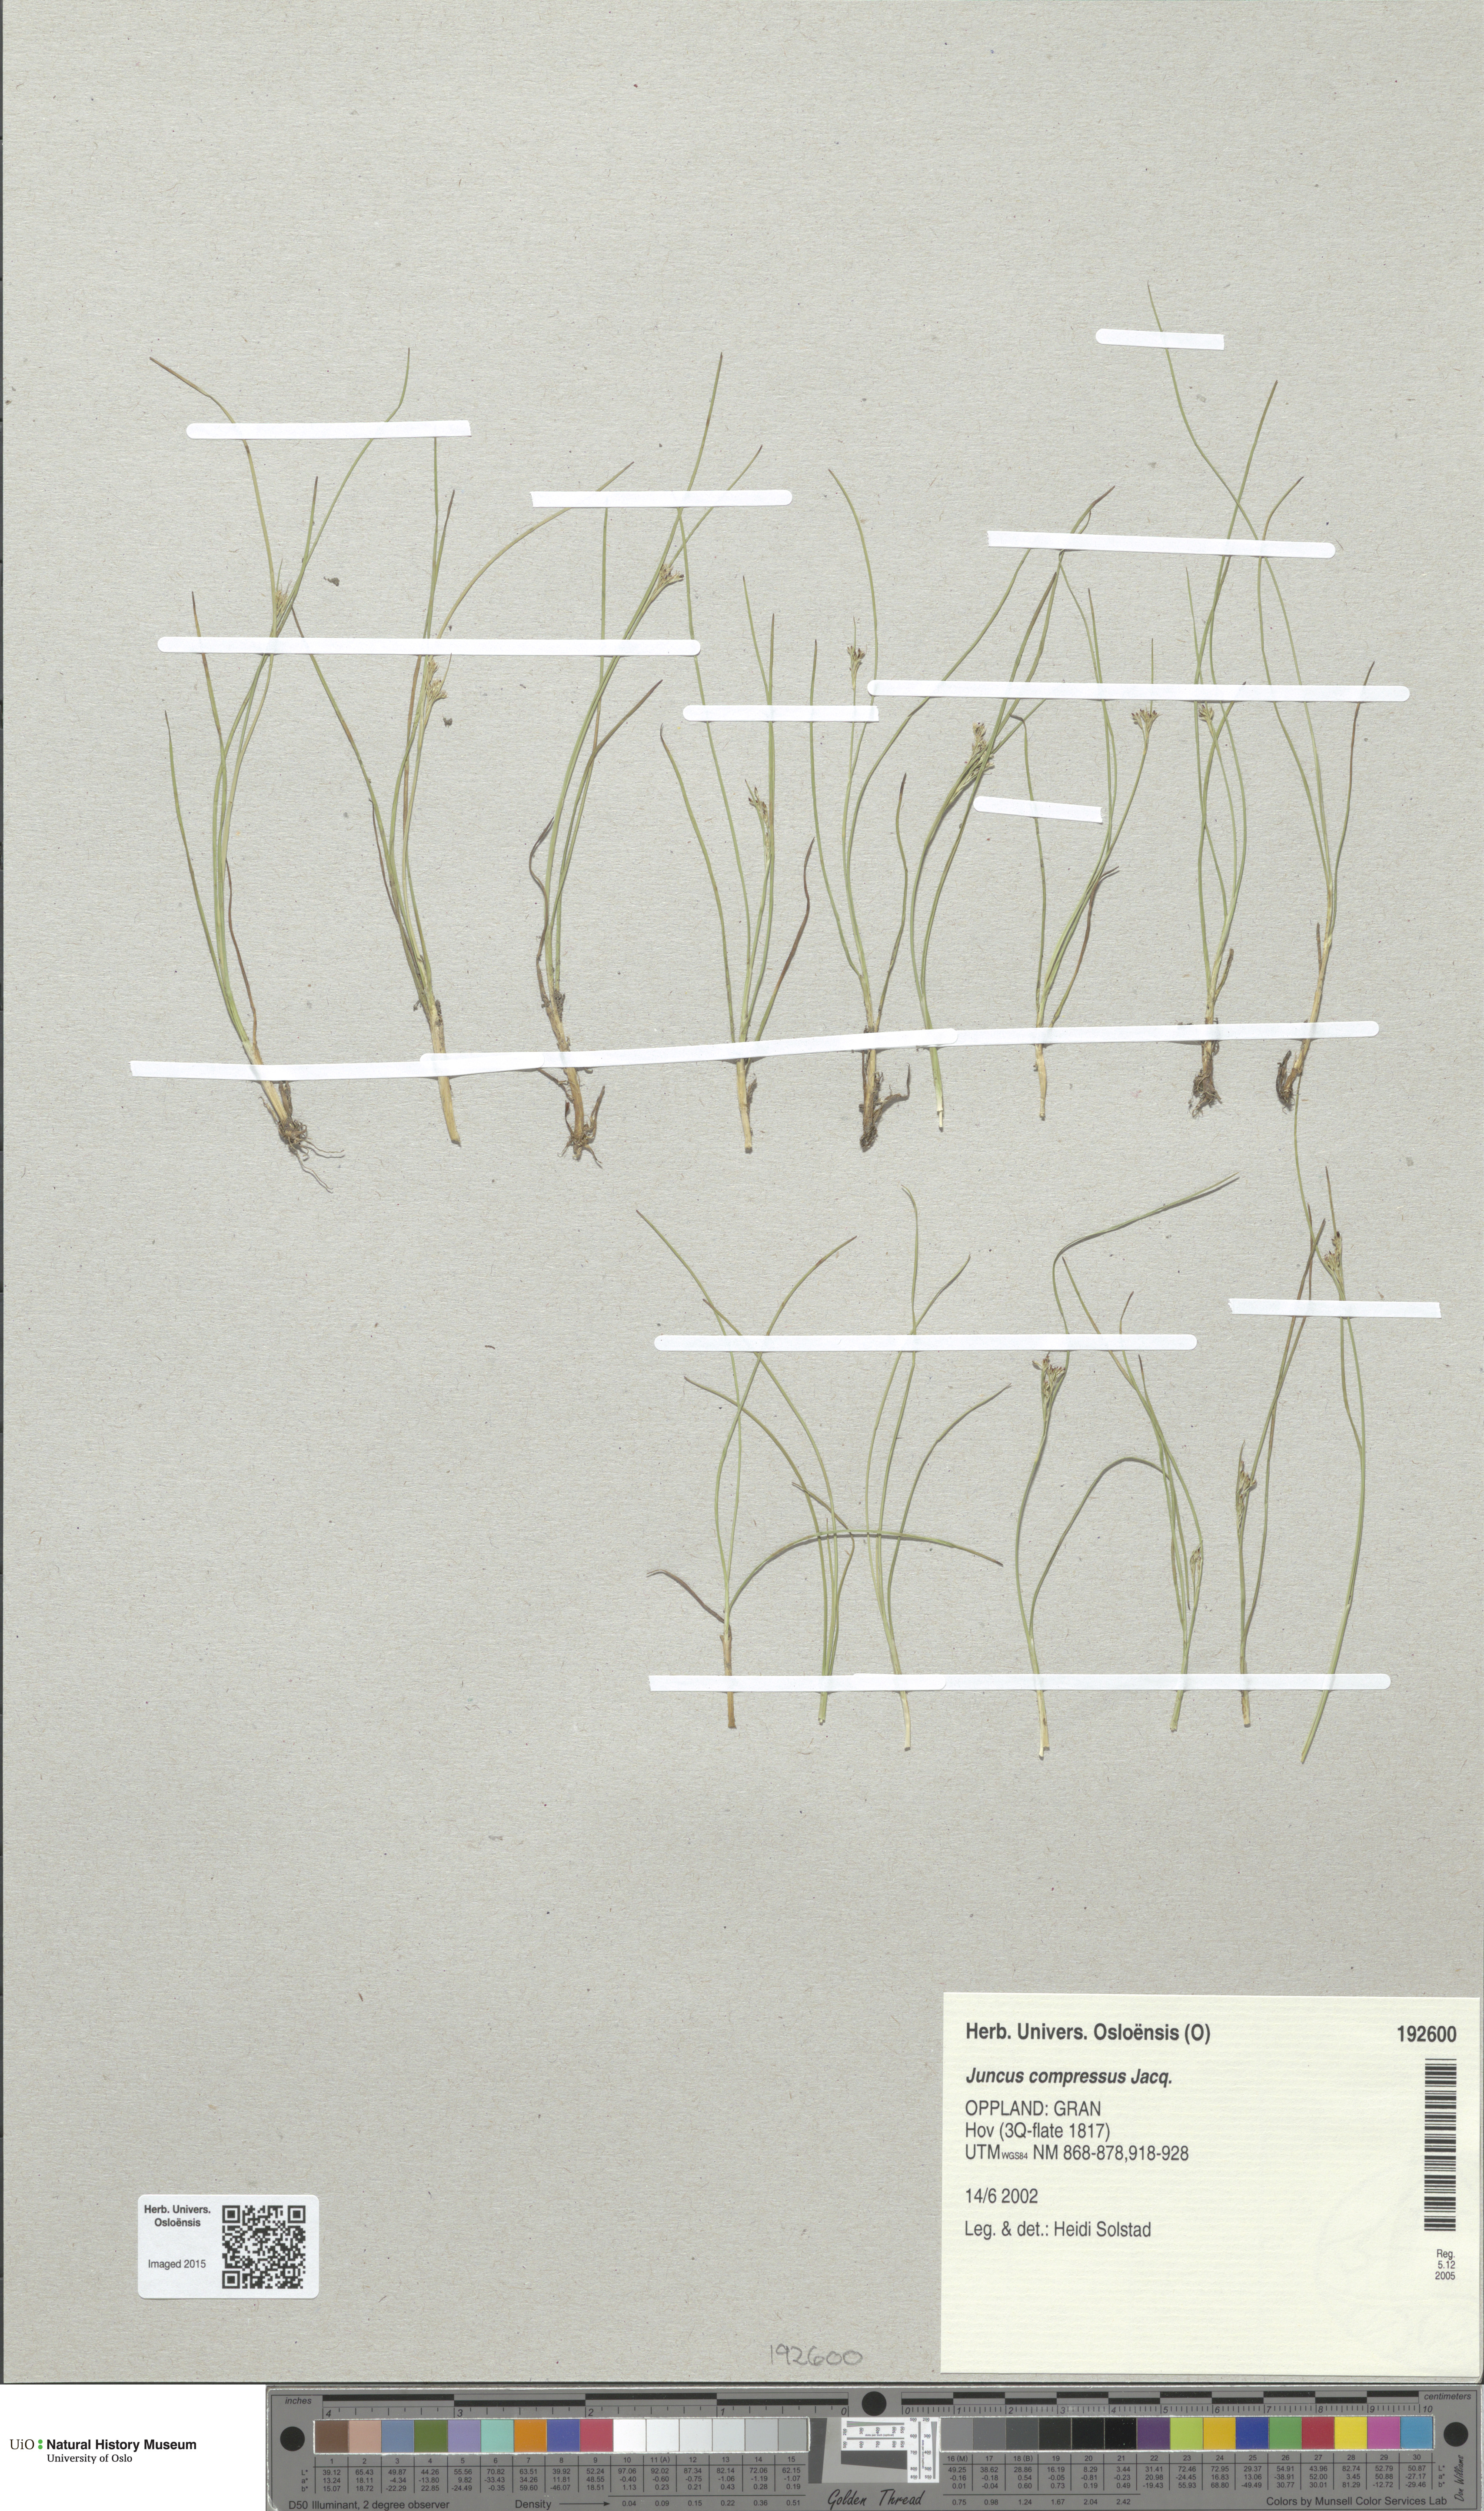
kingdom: Plantae
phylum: Tracheophyta
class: Liliopsida
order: Poales
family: Juncaceae
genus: Juncus
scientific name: Juncus compressus
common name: Round-fruited rush
